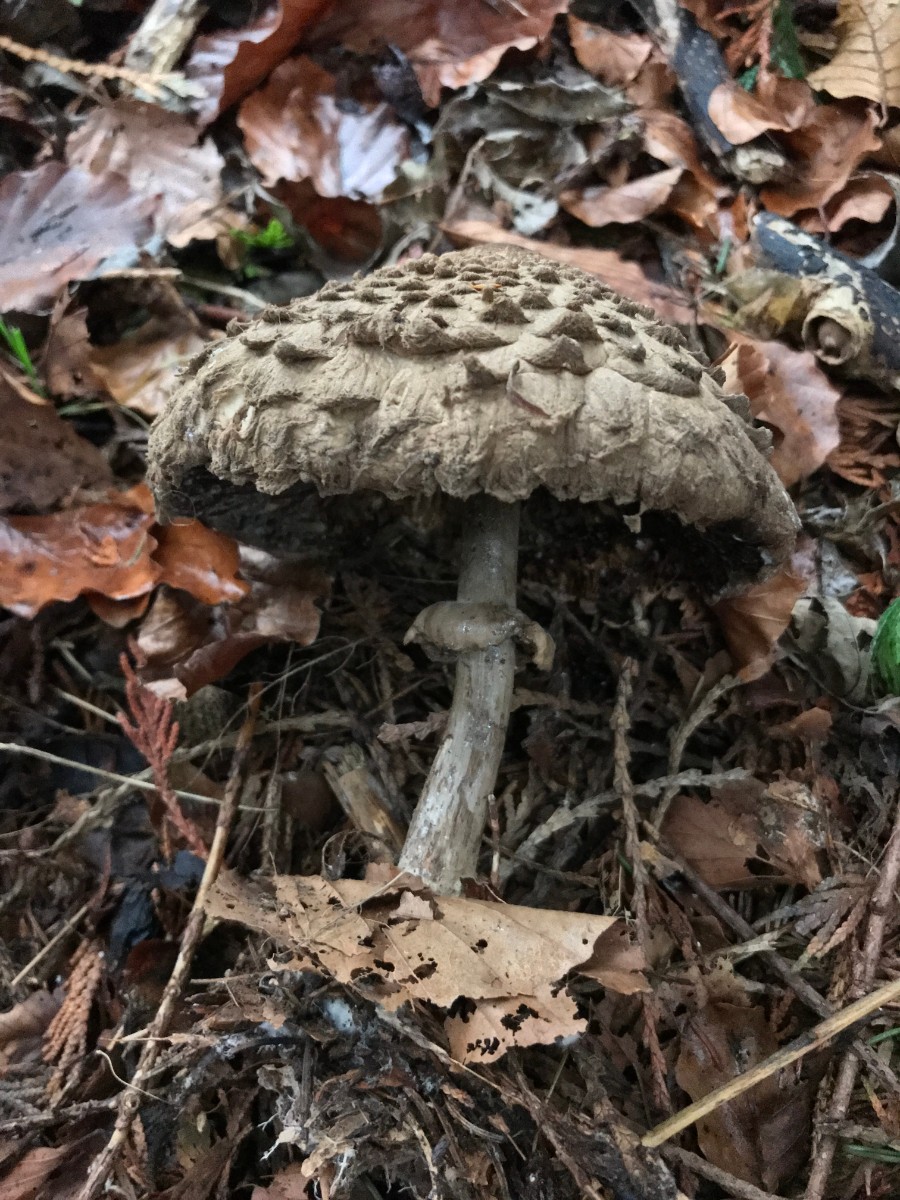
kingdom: Fungi
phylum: Basidiomycota
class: Agaricomycetes
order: Agaricales
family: Agaricaceae
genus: Chlorophyllum
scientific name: Chlorophyllum olivieri
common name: almindelig rabarberhat
